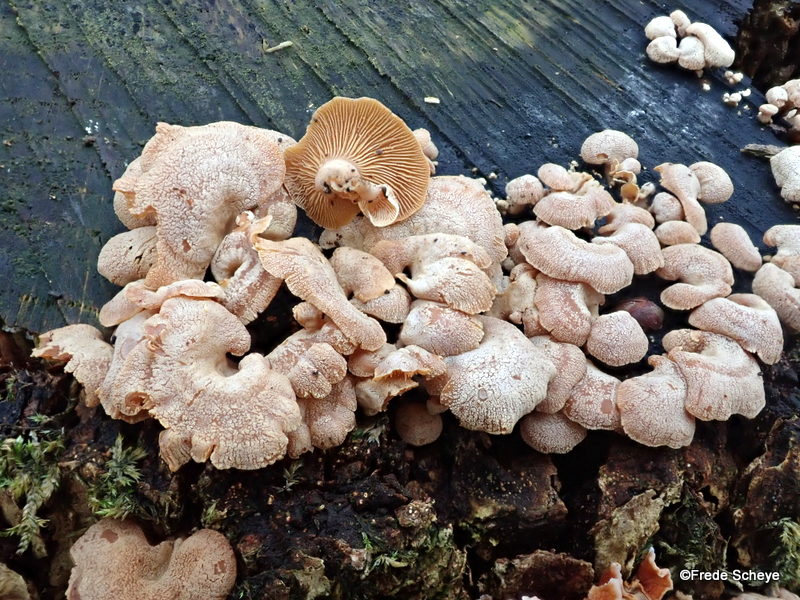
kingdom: Fungi
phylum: Basidiomycota
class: Agaricomycetes
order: Agaricales
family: Mycenaceae
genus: Panellus
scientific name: Panellus stipticus
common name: kliddet epaulethat
